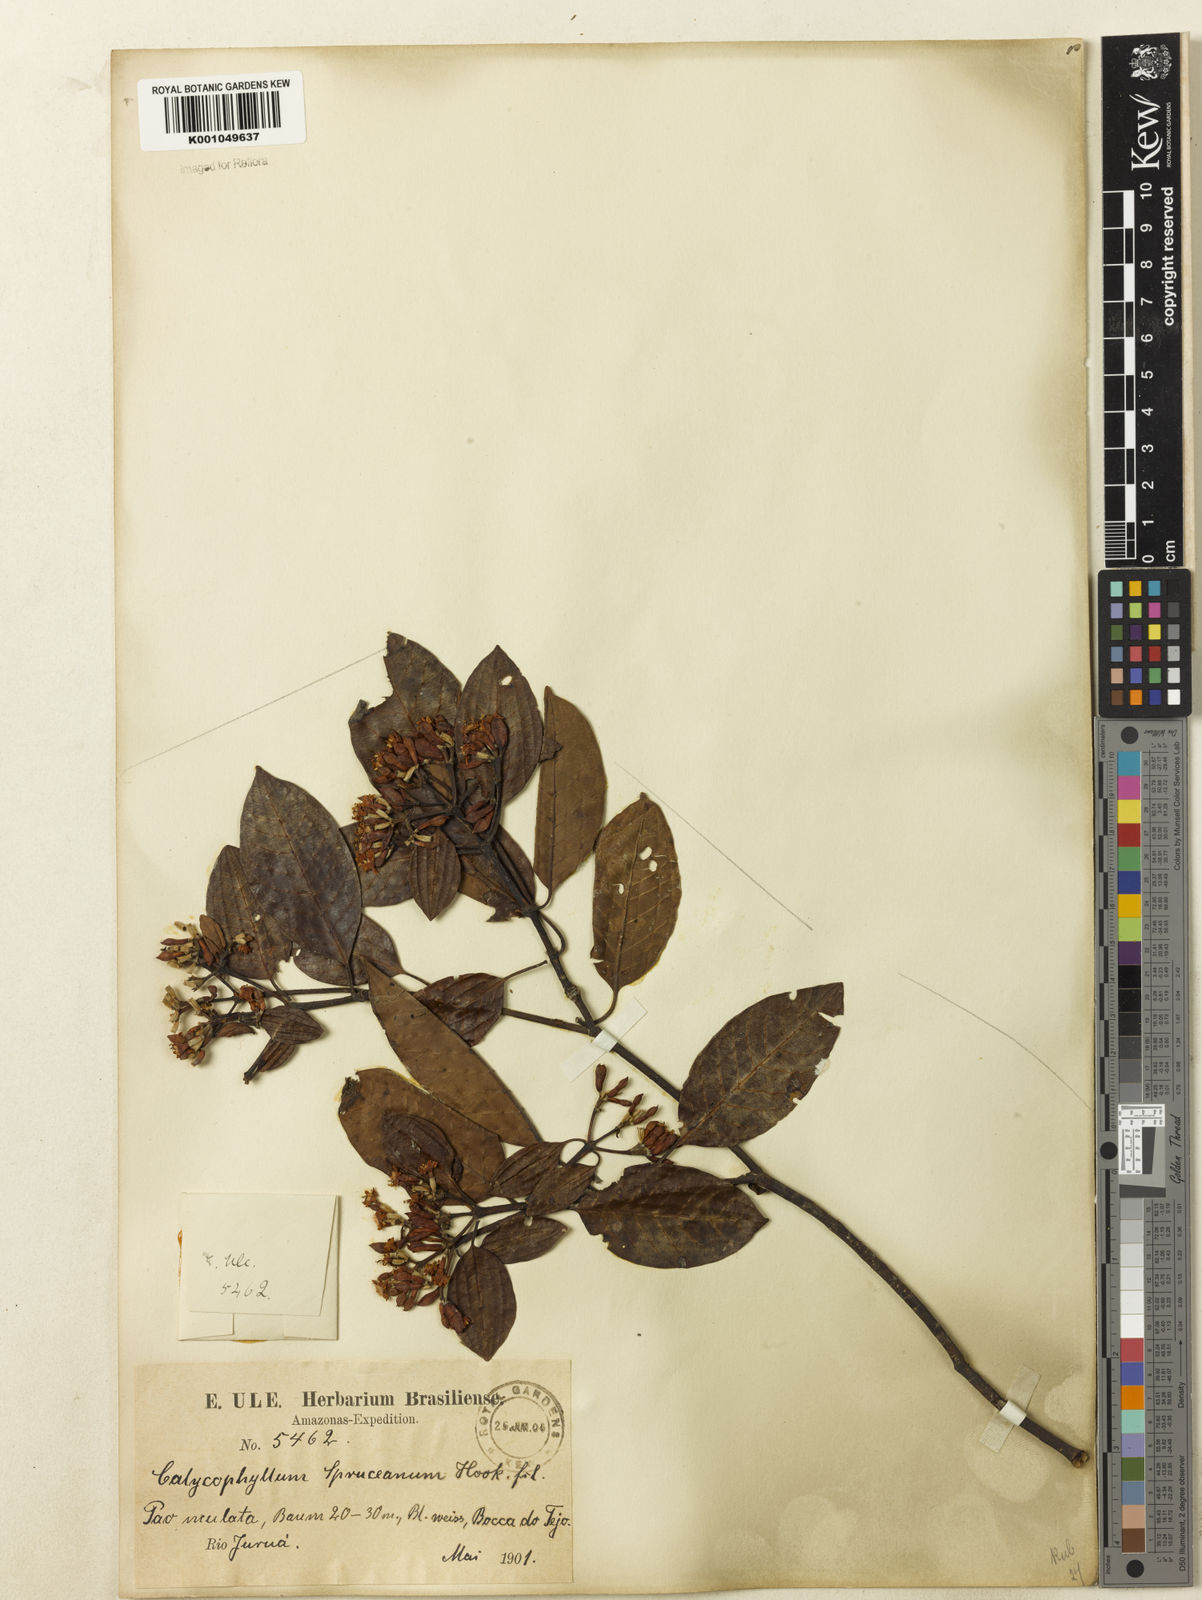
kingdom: Plantae
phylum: Tracheophyta
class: Magnoliopsida
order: Gentianales
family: Rubiaceae
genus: Calycophyllum
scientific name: Calycophyllum spruceanum
